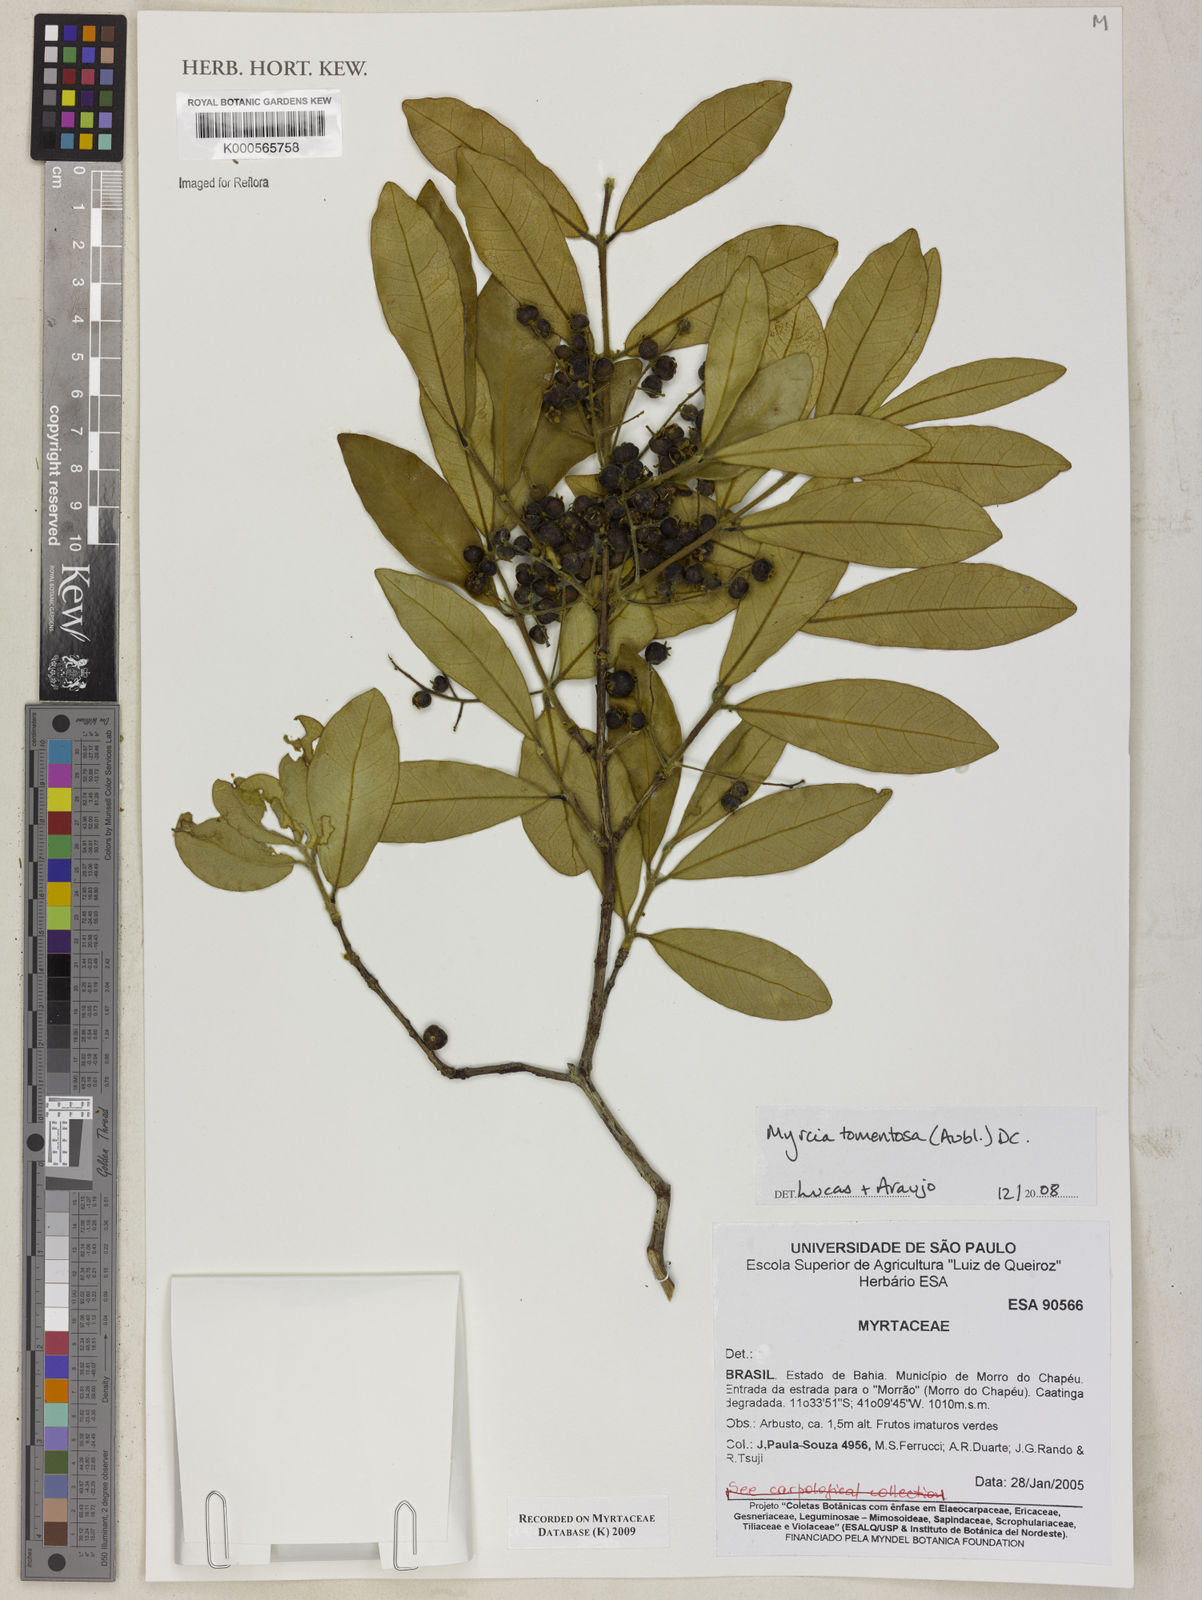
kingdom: Plantae
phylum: Tracheophyta
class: Magnoliopsida
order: Myrtales
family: Myrtaceae
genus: Myrcia
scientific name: Myrcia tomentosa
